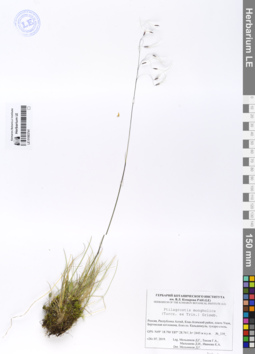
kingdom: Plantae
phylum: Tracheophyta
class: Liliopsida
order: Poales
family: Poaceae
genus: Ptilagrostis
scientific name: Ptilagrostis mongholica
